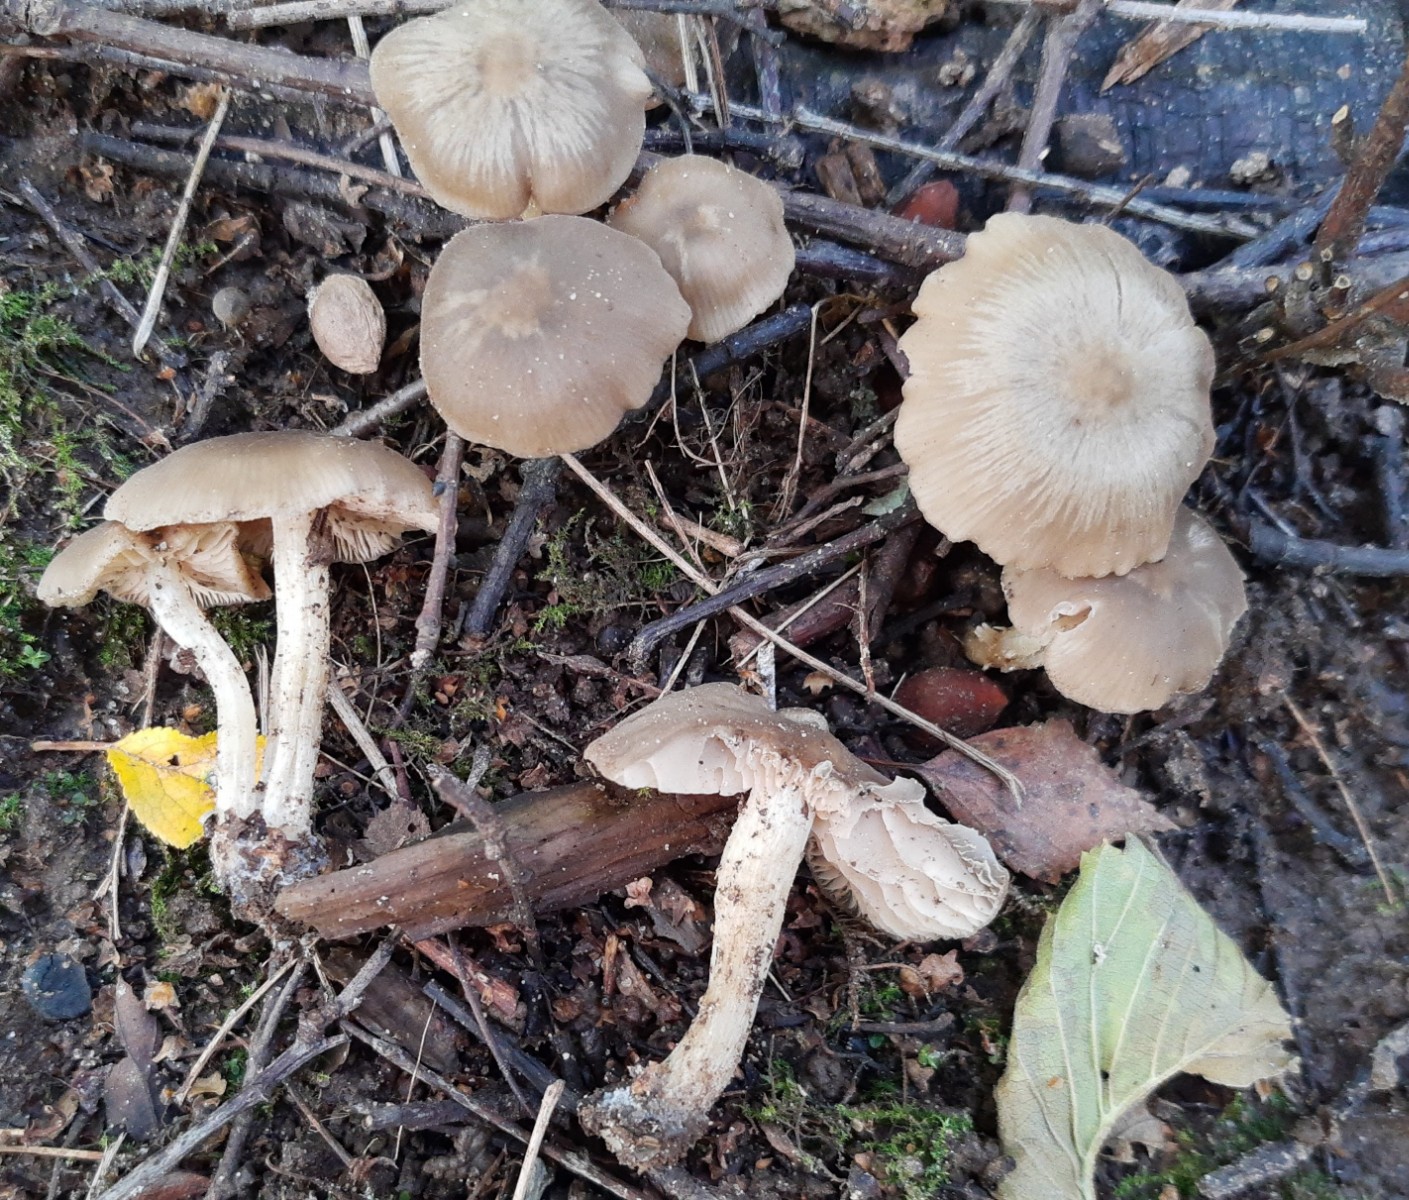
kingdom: Fungi
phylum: Basidiomycota
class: Agaricomycetes
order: Agaricales
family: Entolomataceae
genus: Entoloma
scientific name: Entoloma
